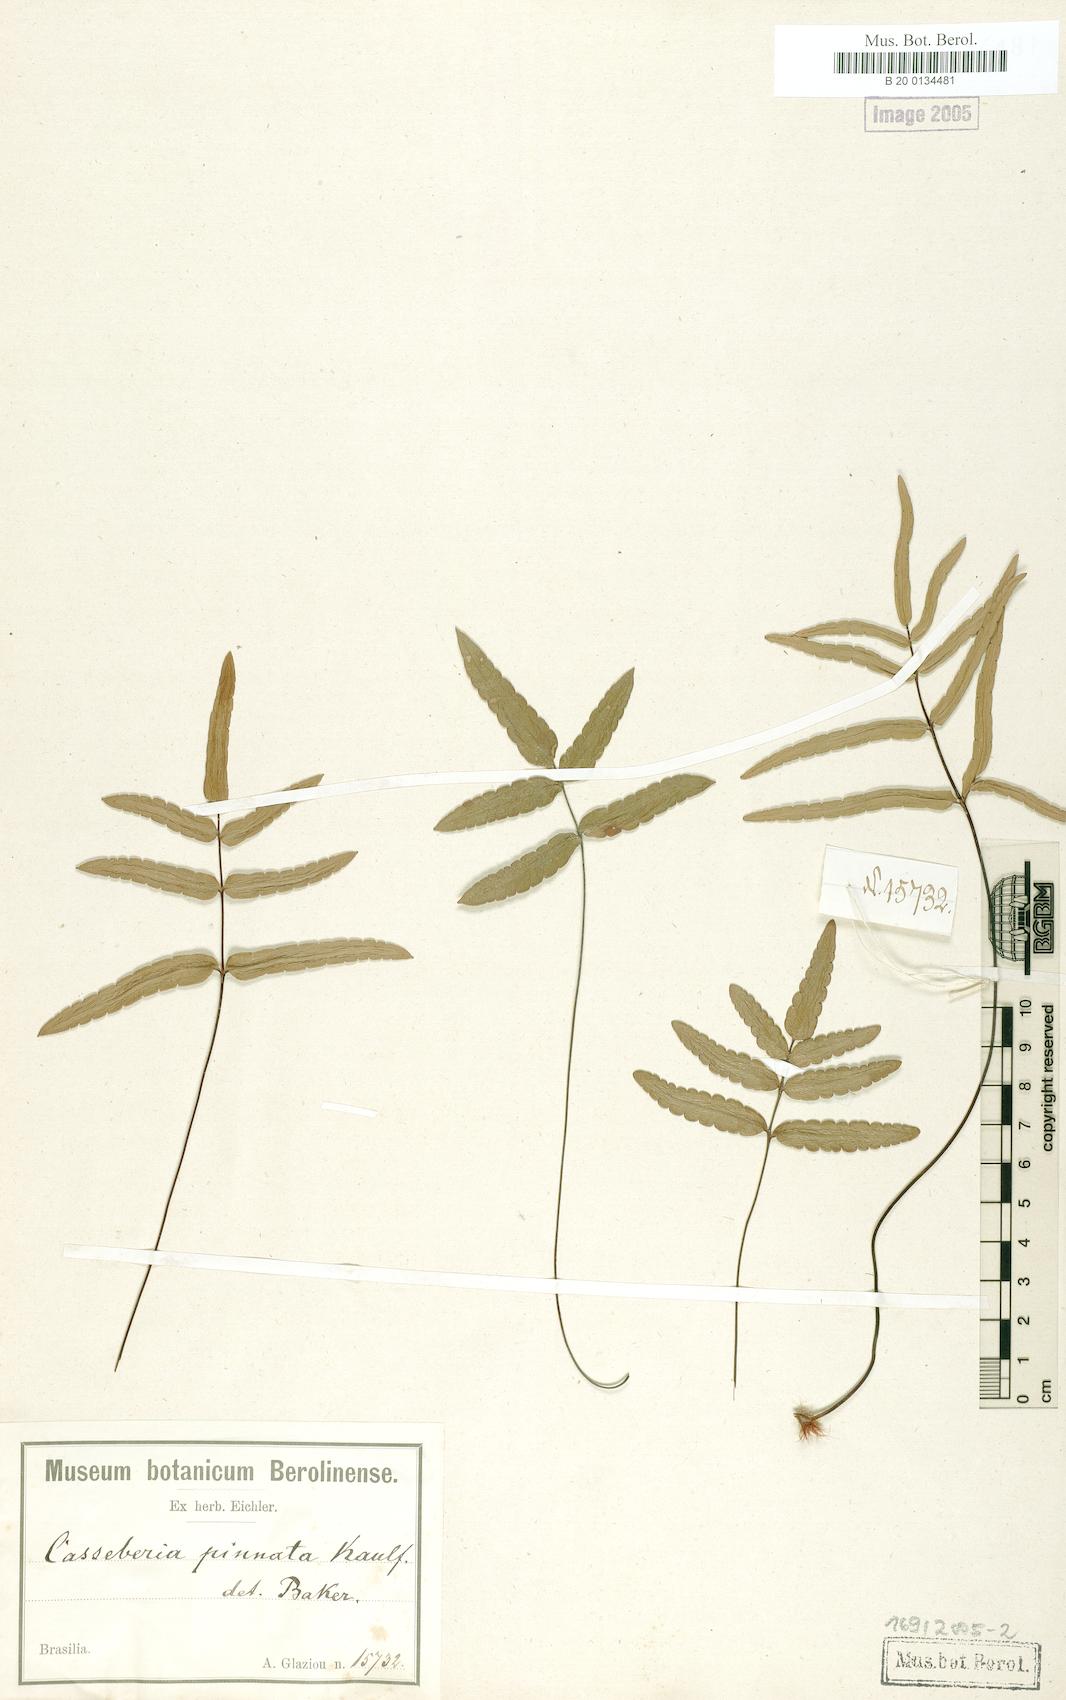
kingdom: Plantae
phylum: Tracheophyta
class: Polypodiopsida
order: Polypodiales
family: Pteridaceae
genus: Ormopteris
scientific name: Ormopteris pinnata
